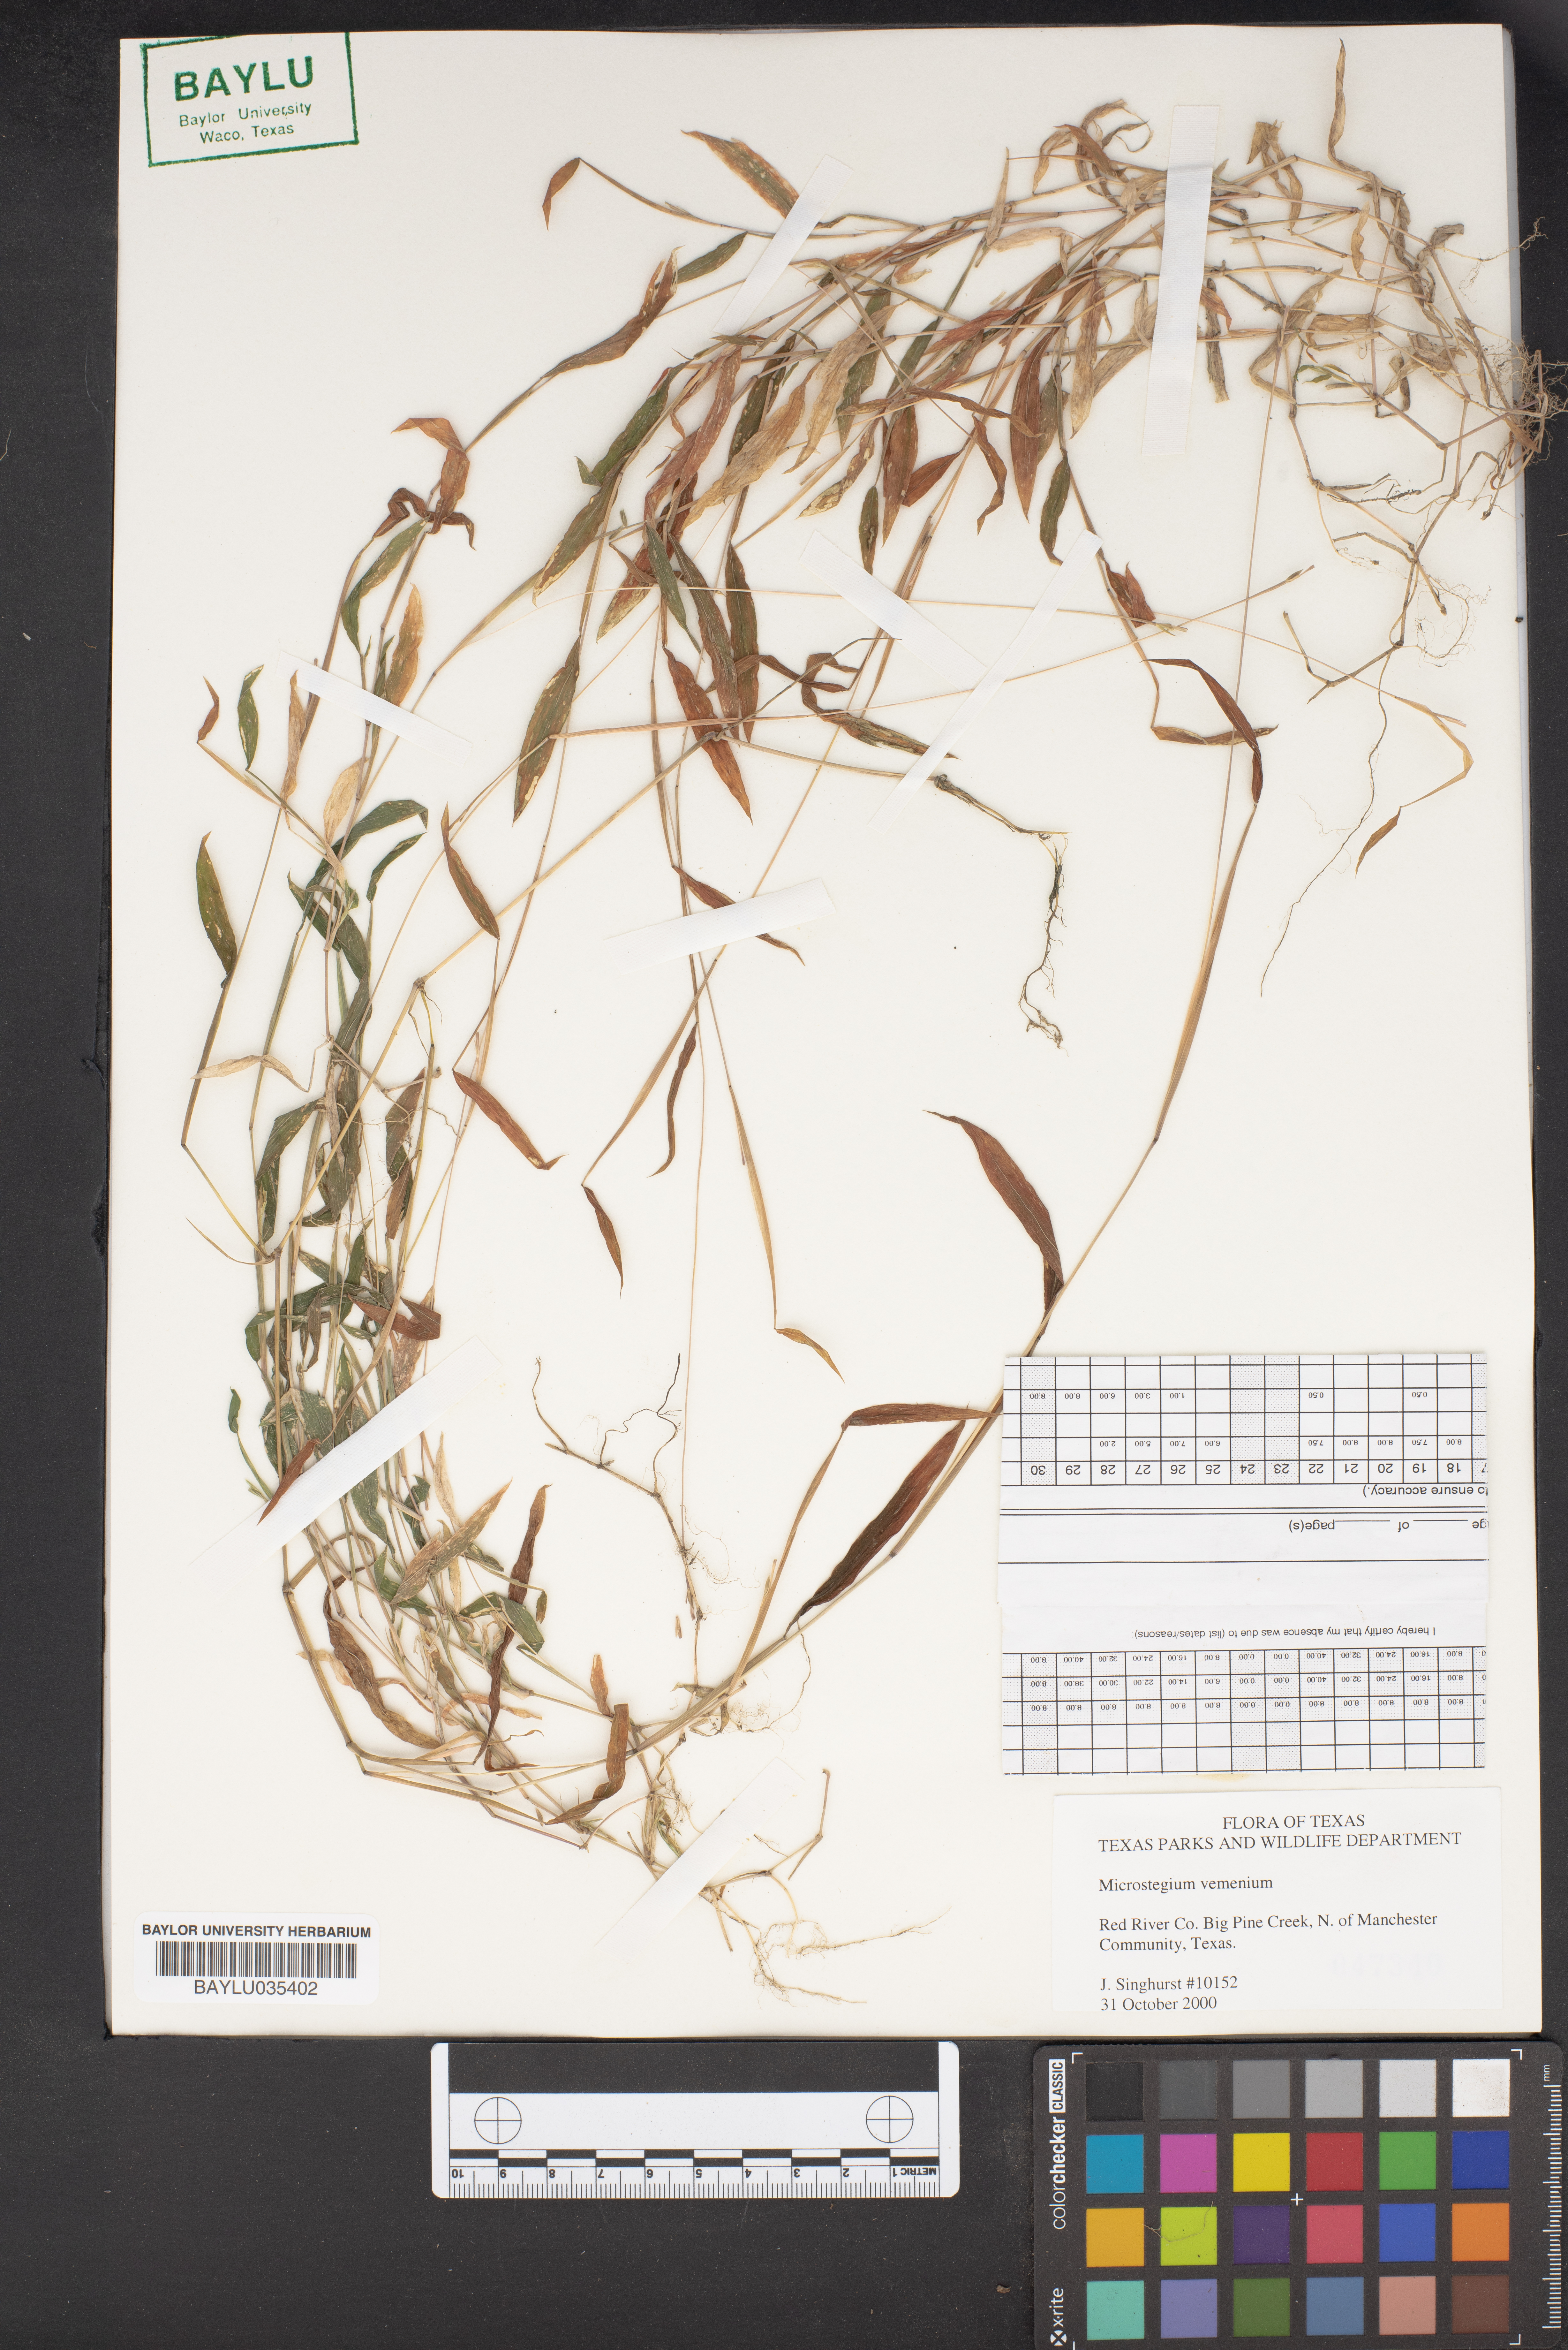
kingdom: Plantae
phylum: Tracheophyta
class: Liliopsida
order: Poales
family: Poaceae
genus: Microstegium
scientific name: Microstegium vimineum
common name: Japanese stiltgrass
